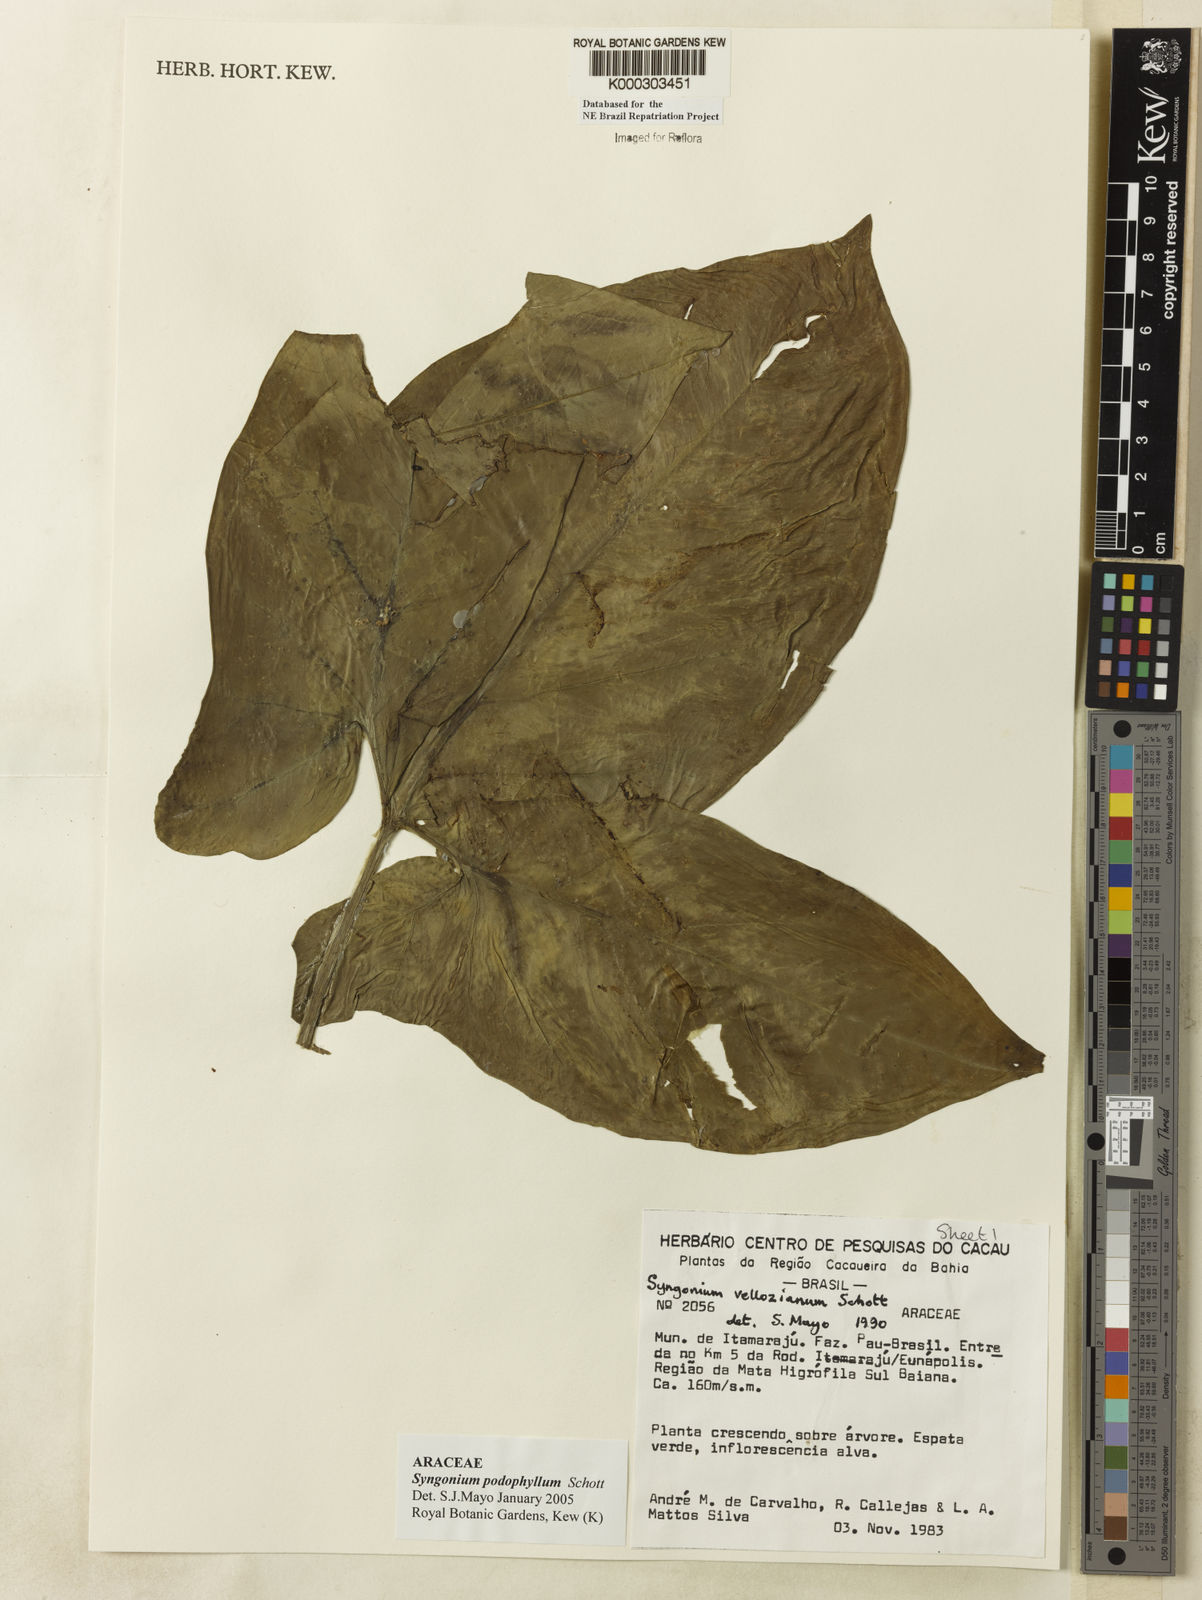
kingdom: Plantae
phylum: Tracheophyta
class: Liliopsida
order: Alismatales
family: Araceae
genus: Syngonium
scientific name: Syngonium podophyllum
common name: American evergreen
